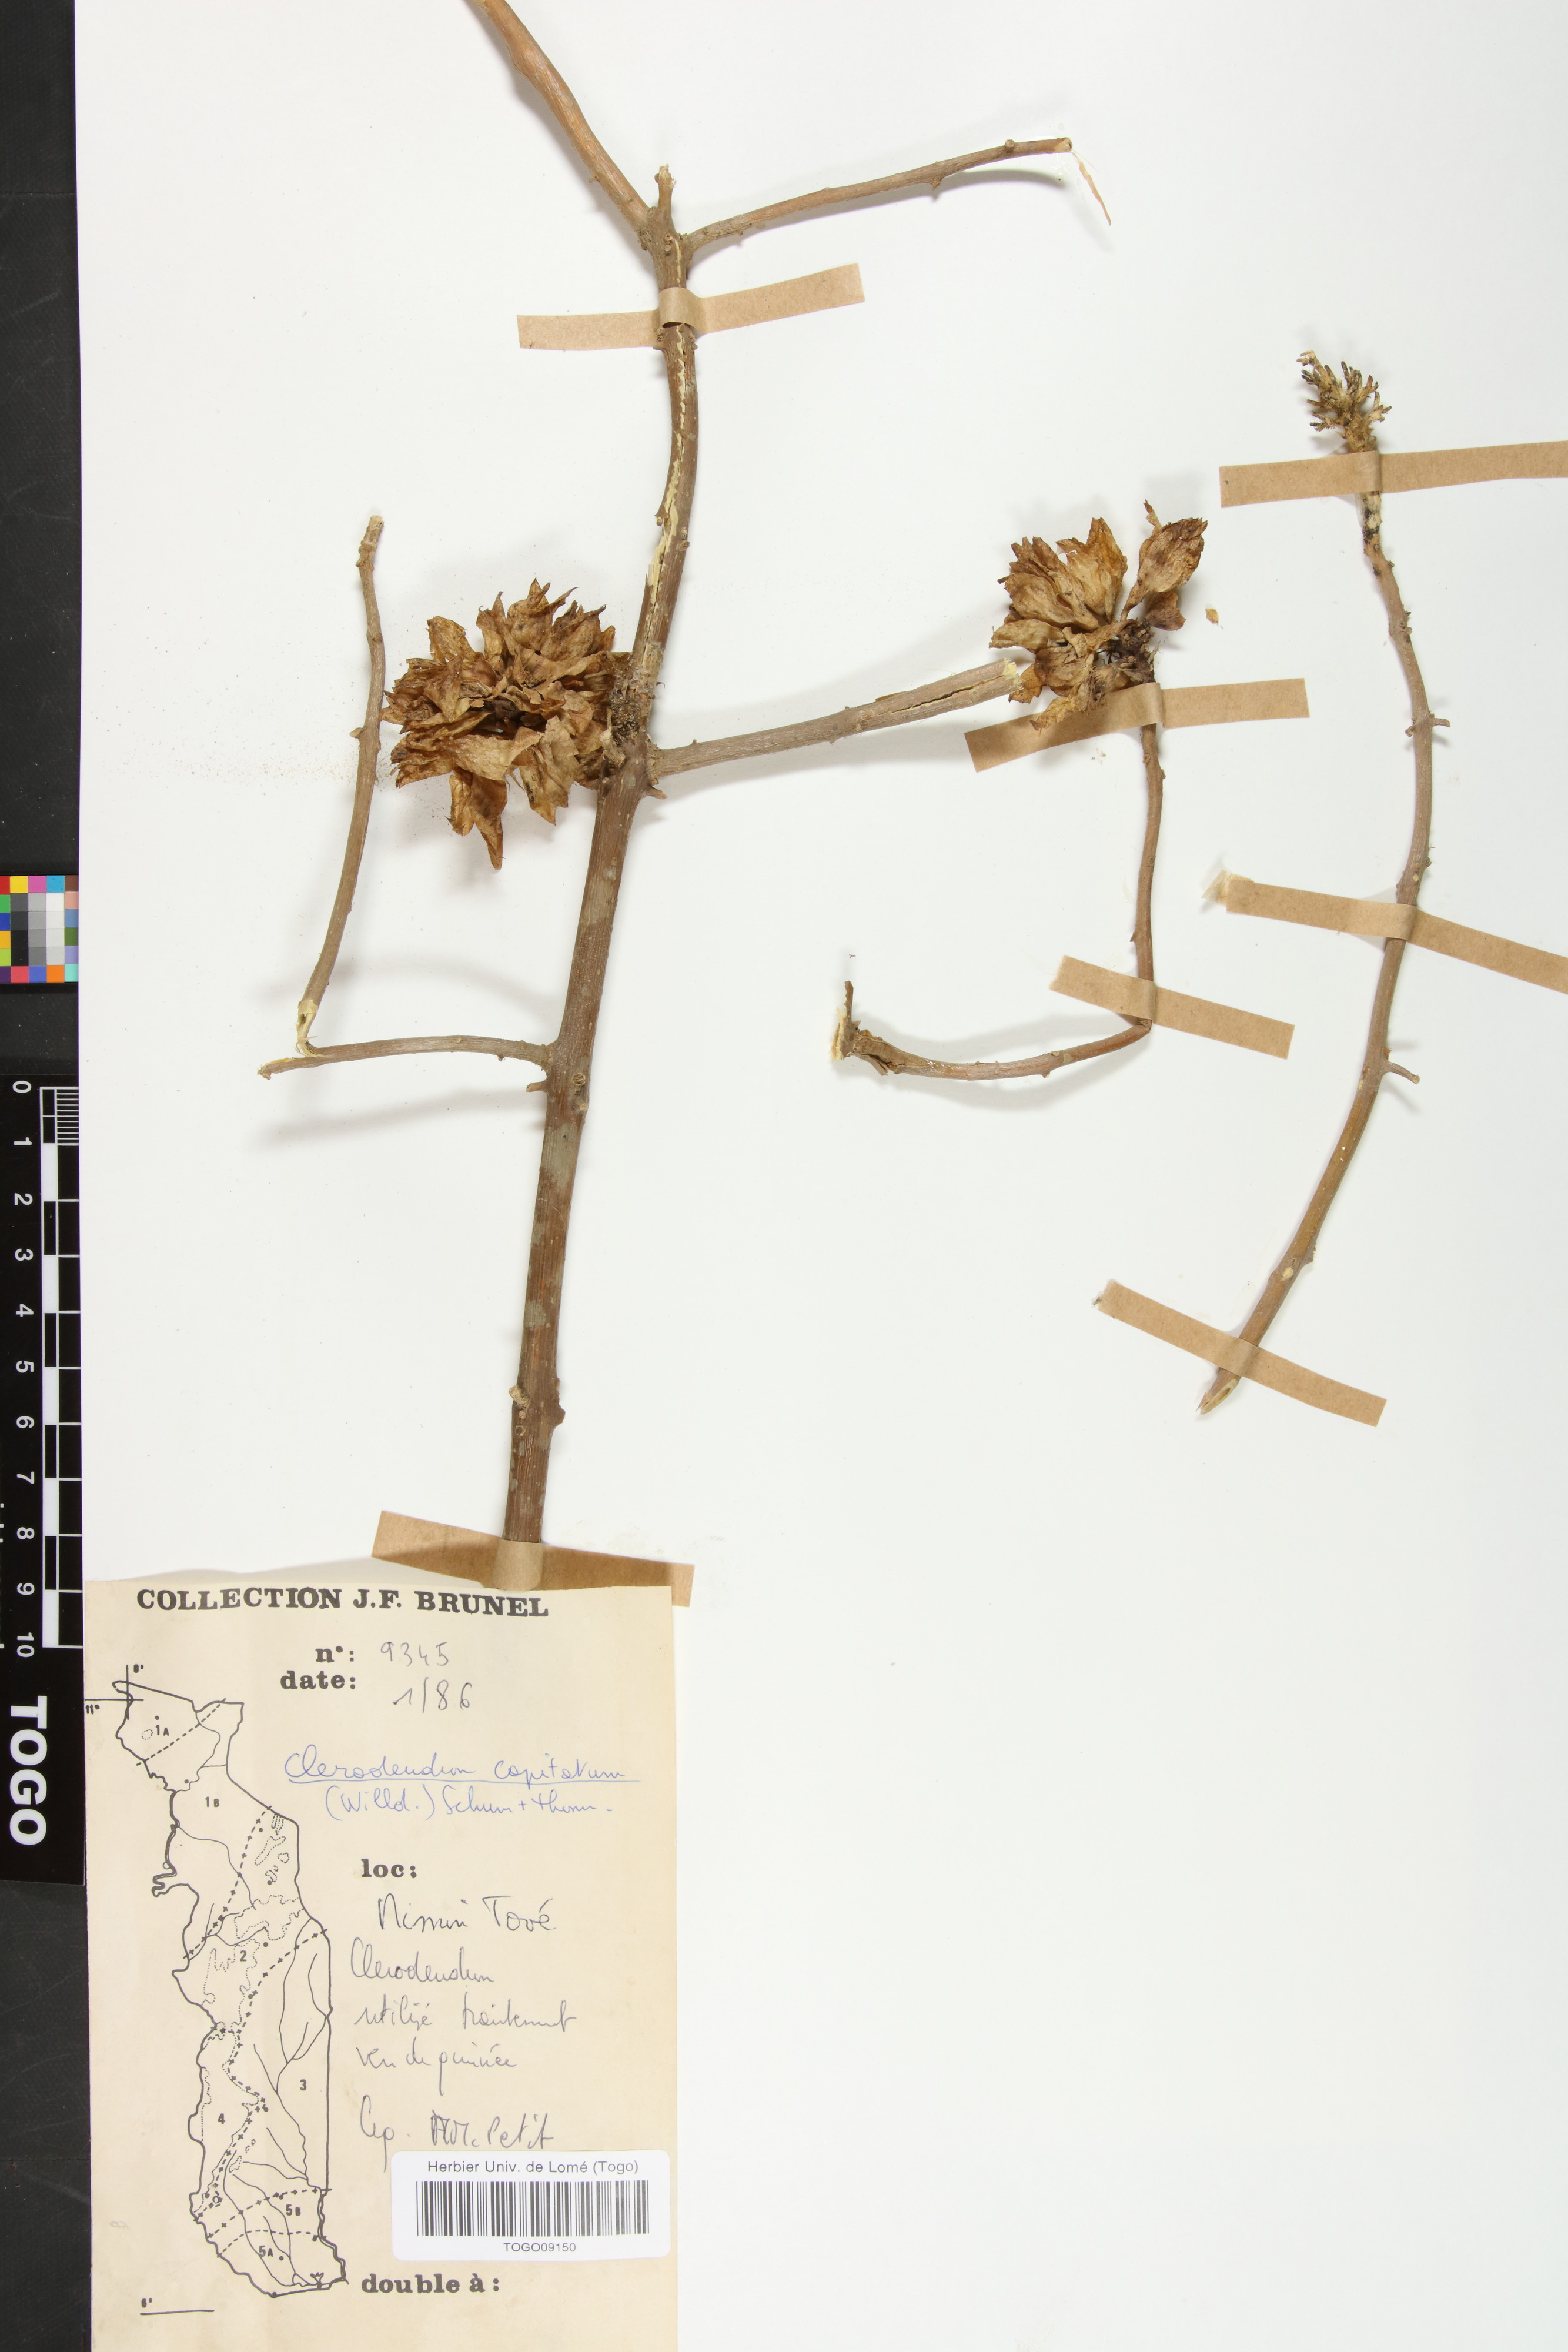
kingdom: Plantae
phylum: Tracheophyta
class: Magnoliopsida
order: Lamiales
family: Lamiaceae
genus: Clerodendrum
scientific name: Clerodendrum capitatum
